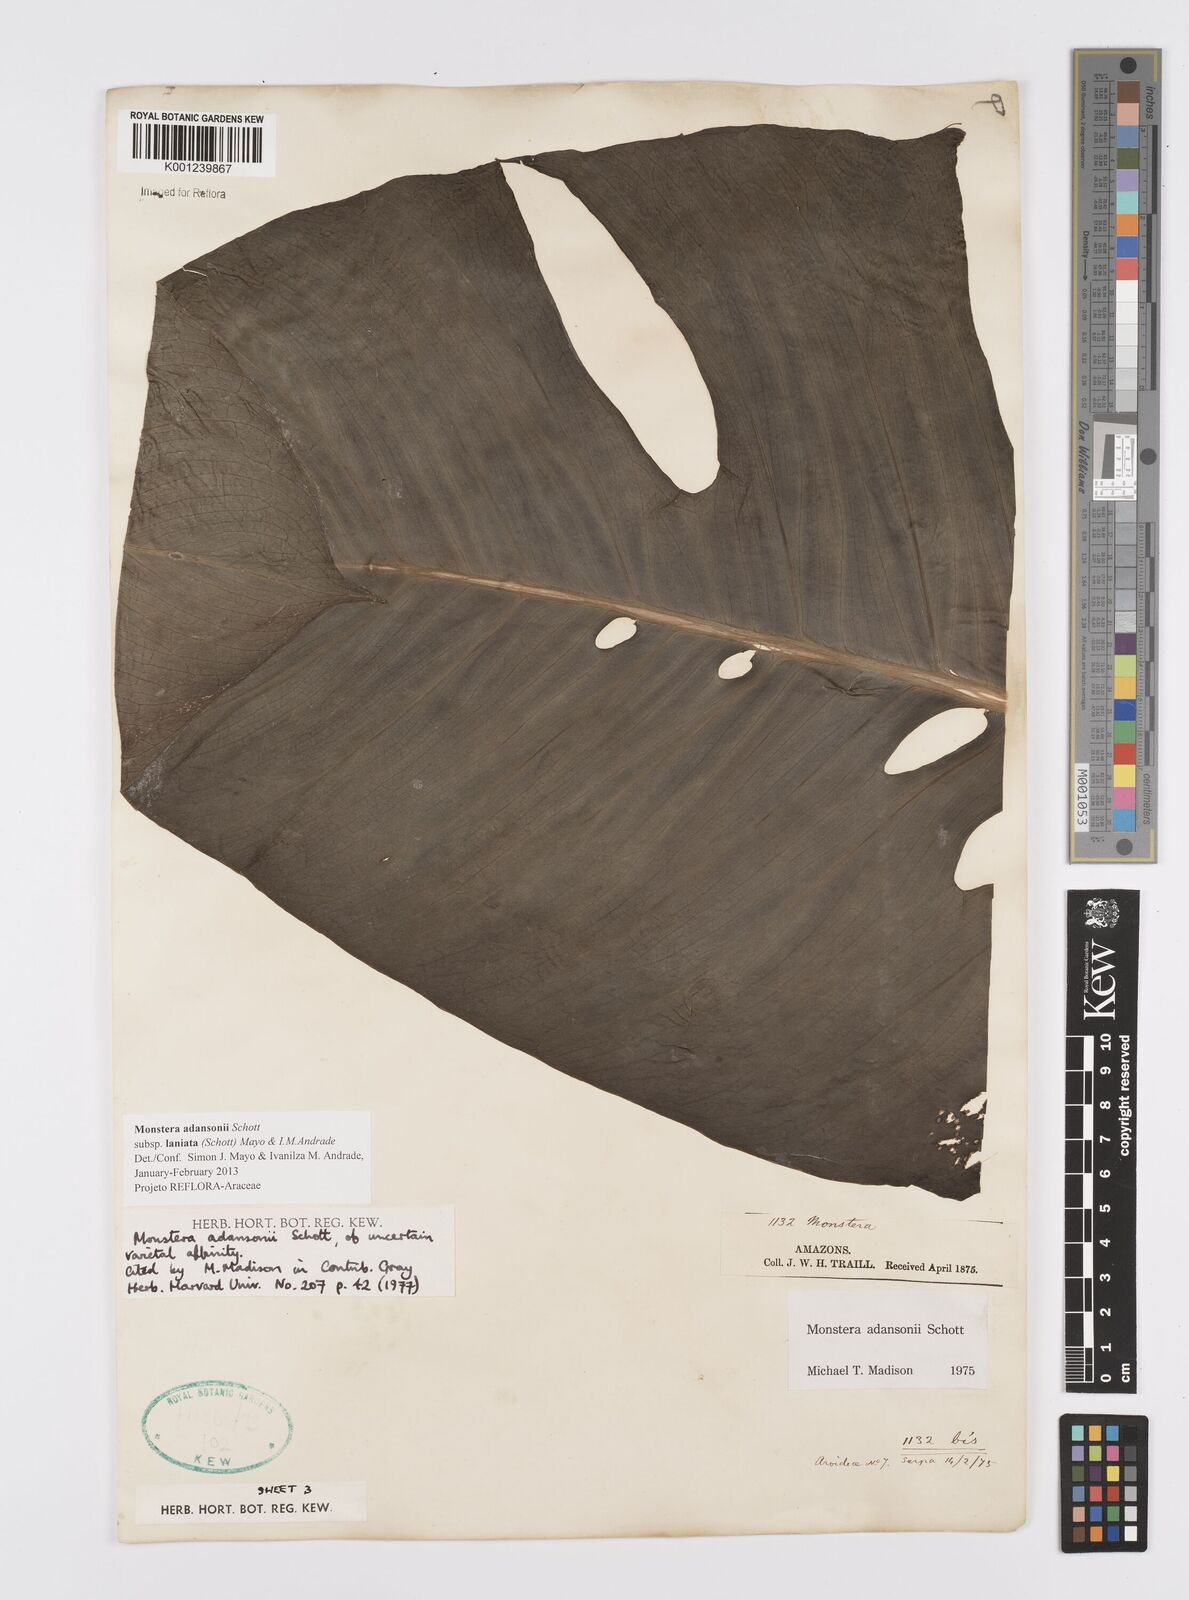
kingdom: Plantae
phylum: Tracheophyta
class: Liliopsida
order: Alismatales
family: Araceae
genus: Monstera
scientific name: Monstera adansonii
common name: Tarovine
